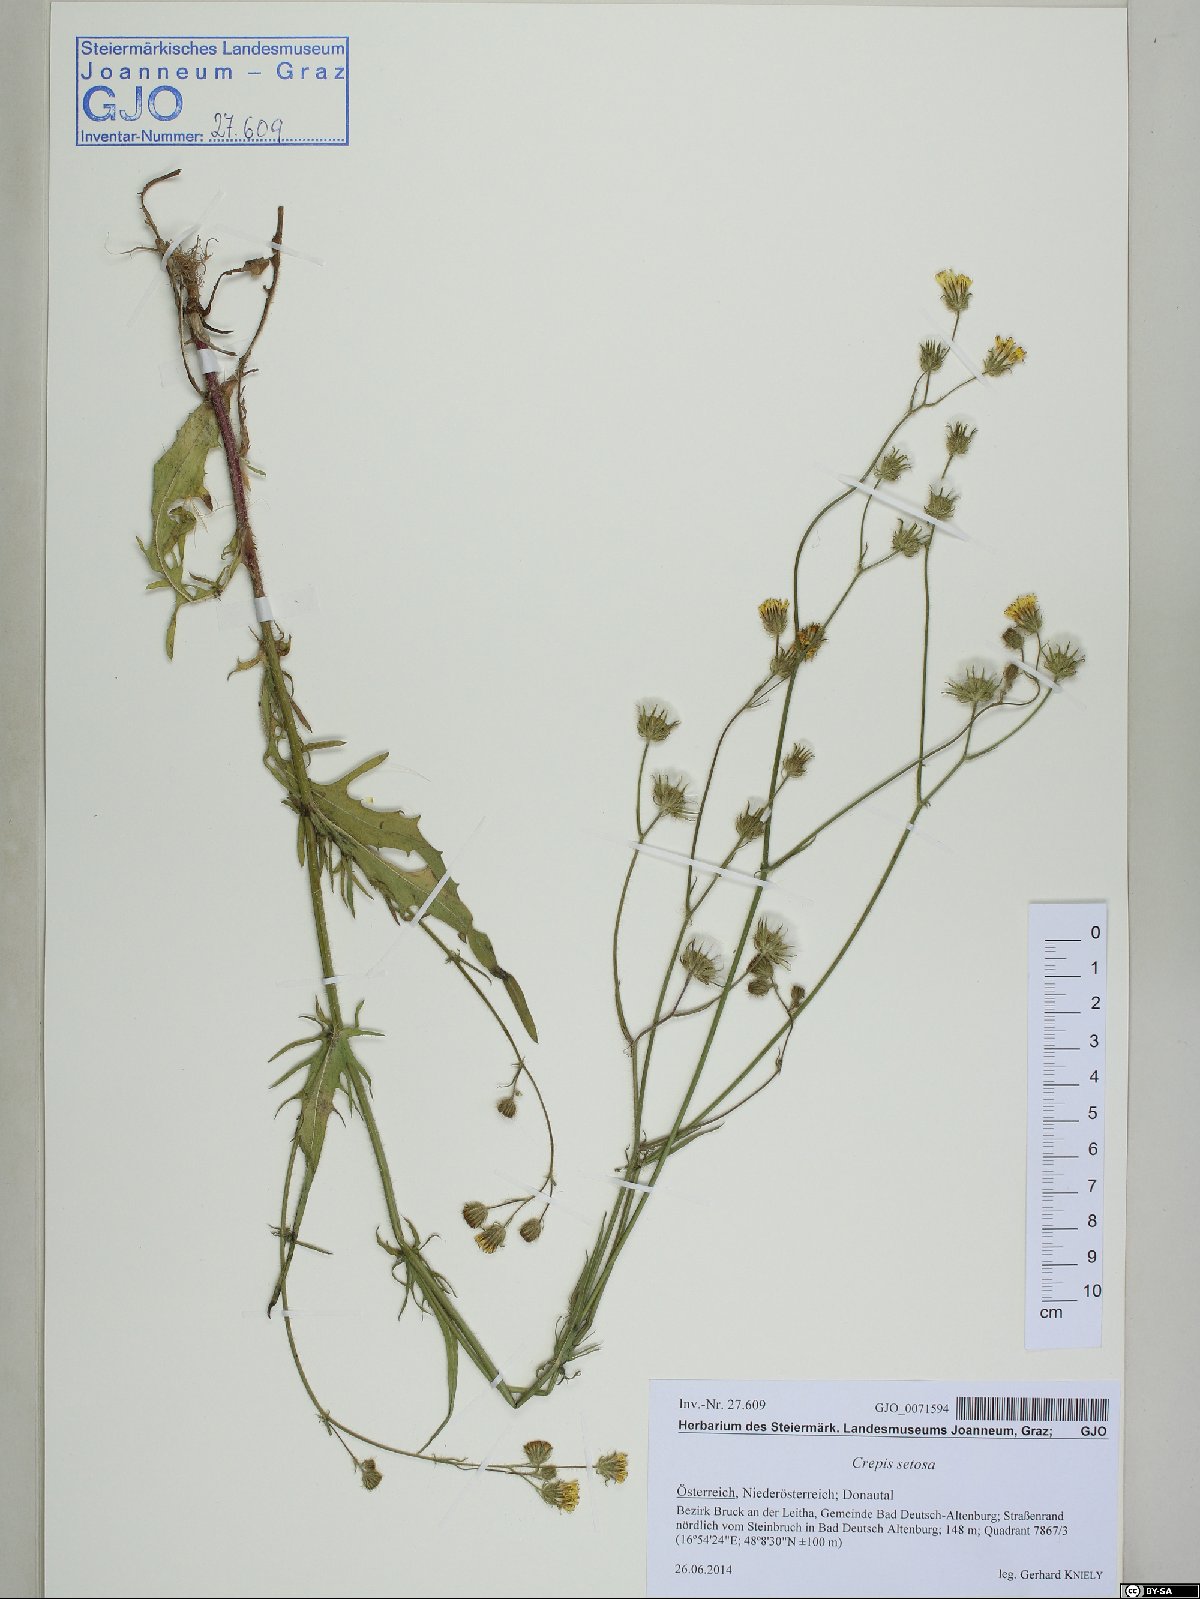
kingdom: Plantae
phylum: Tracheophyta
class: Magnoliopsida
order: Asterales
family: Asteraceae
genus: Crepis
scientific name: Crepis setosa
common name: Bristly hawk's-beard
